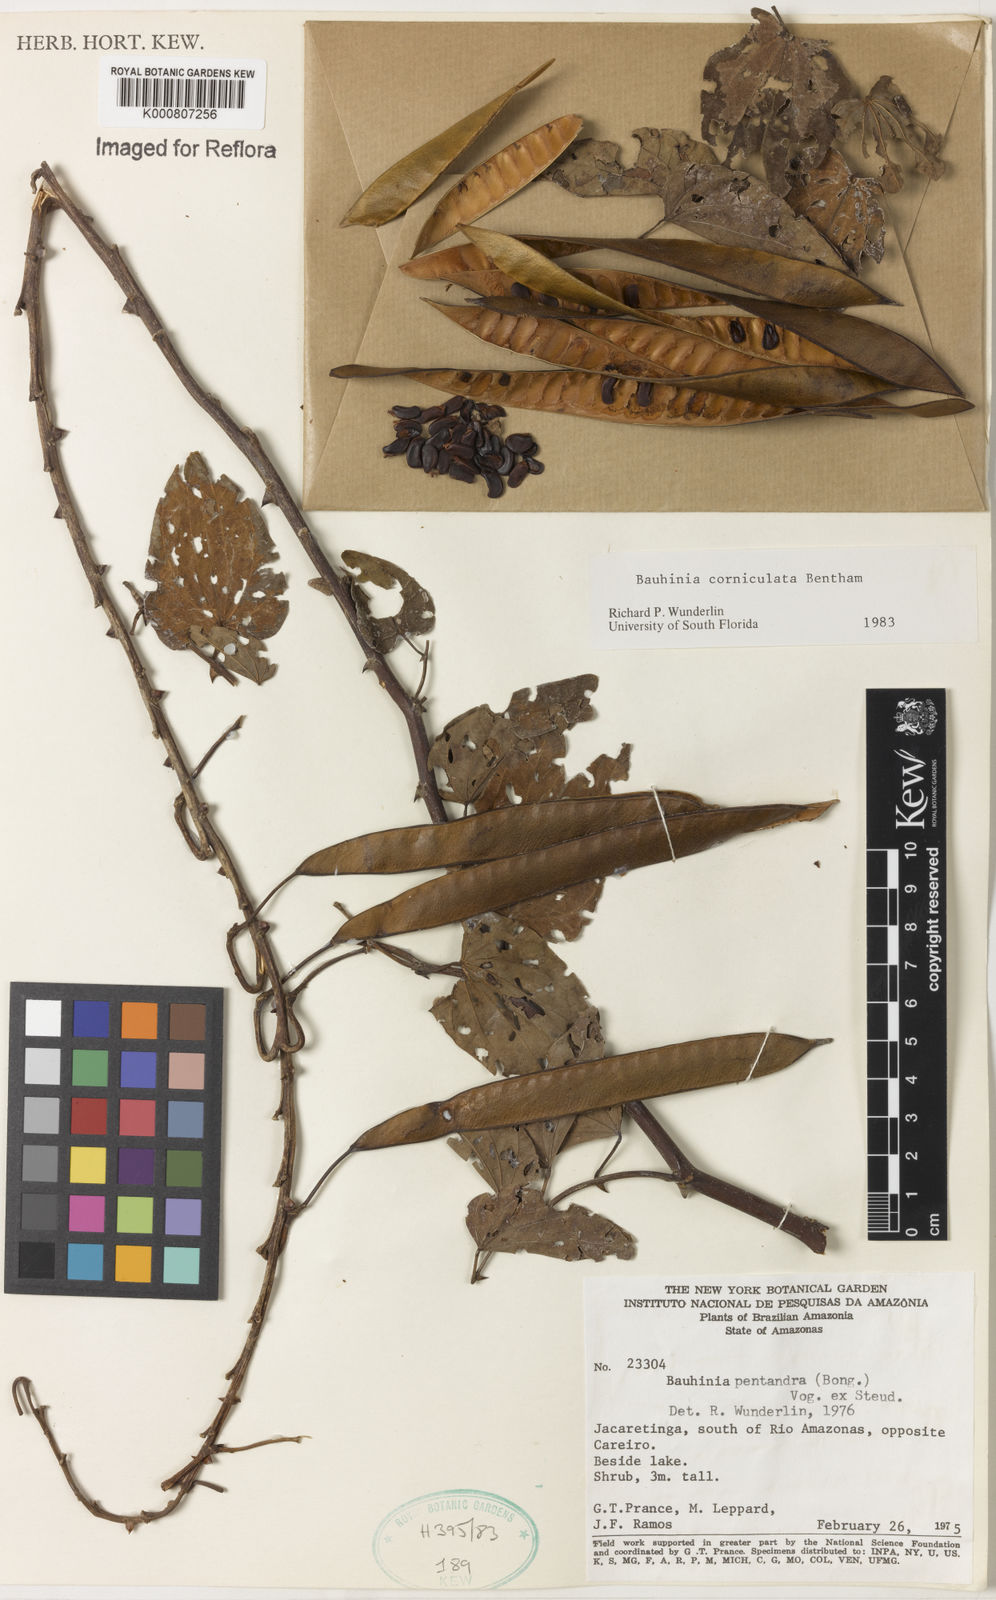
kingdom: Plantae
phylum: Tracheophyta
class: Magnoliopsida
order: Fabales
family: Fabaceae
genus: Bauhinia
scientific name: Bauhinia corniculata
